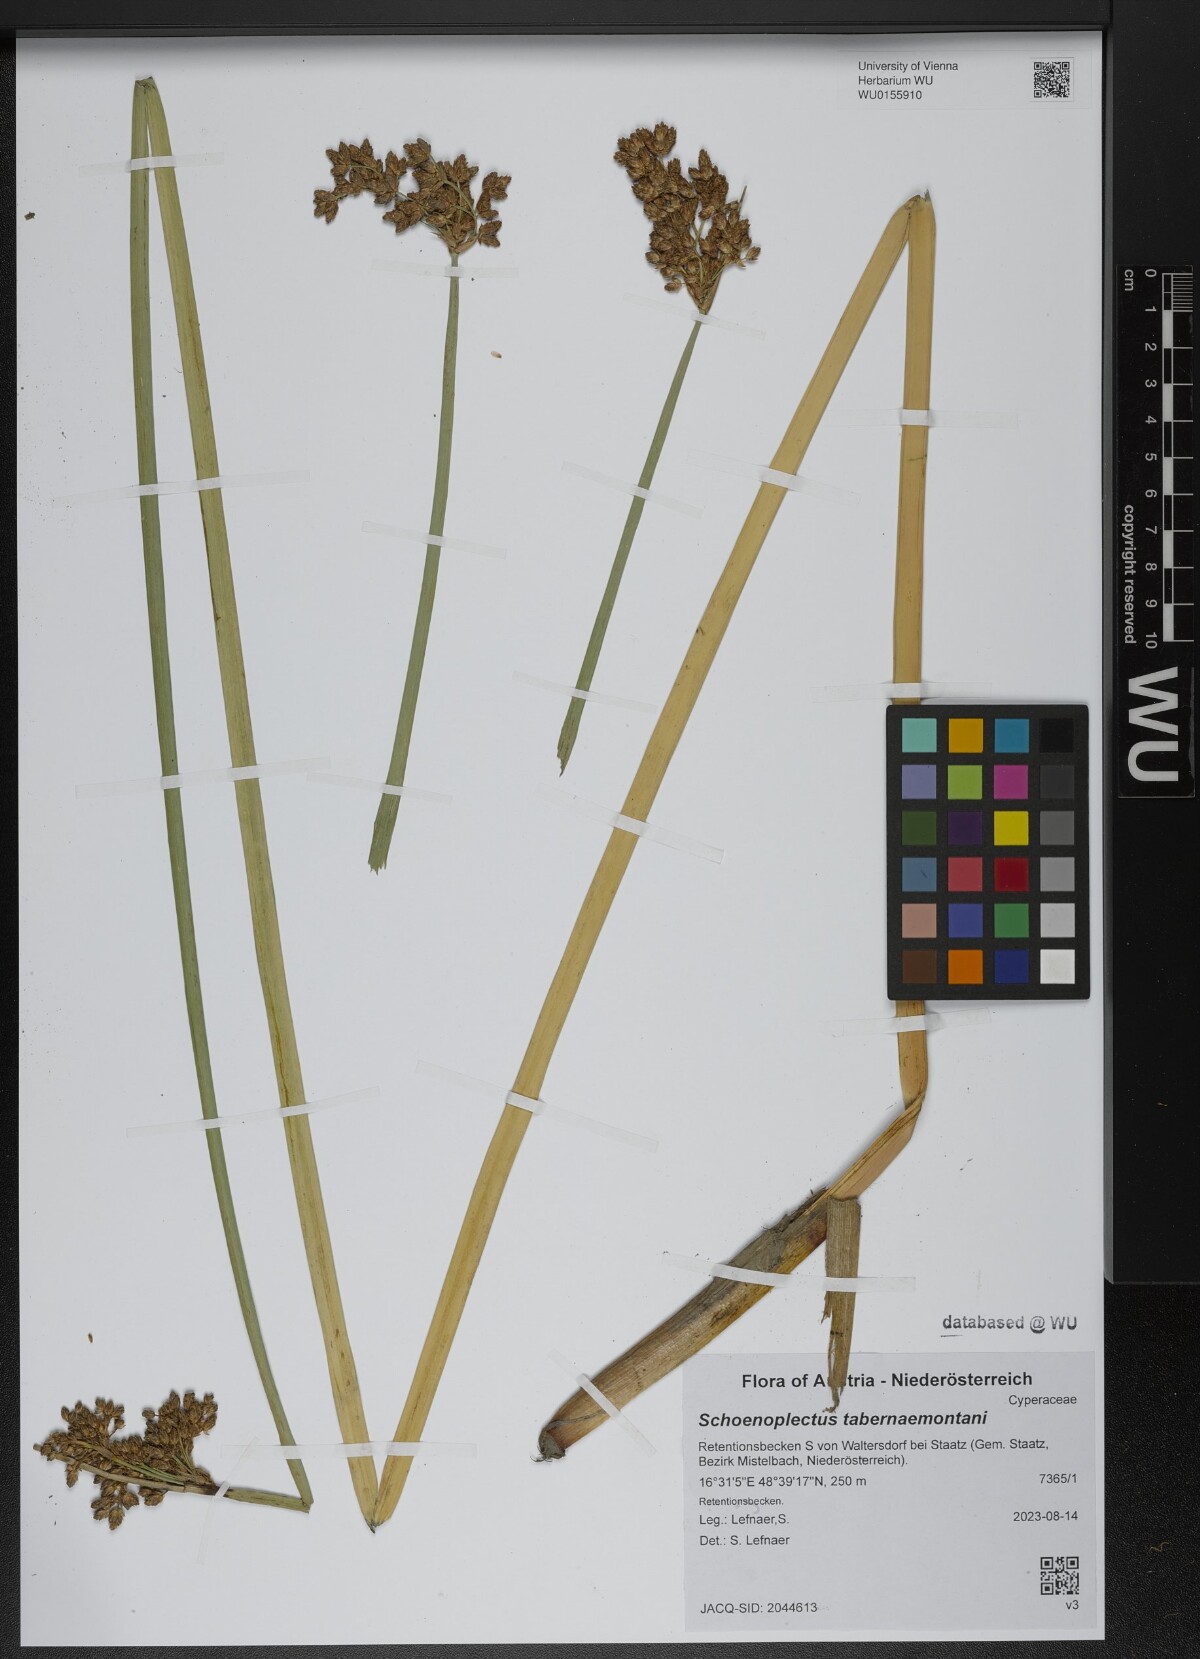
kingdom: Plantae
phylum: Tracheophyta
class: Liliopsida
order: Poales
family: Cyperaceae
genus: Schoenoplectus
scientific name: Schoenoplectus tabernaemontani
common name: Grey club-rush
